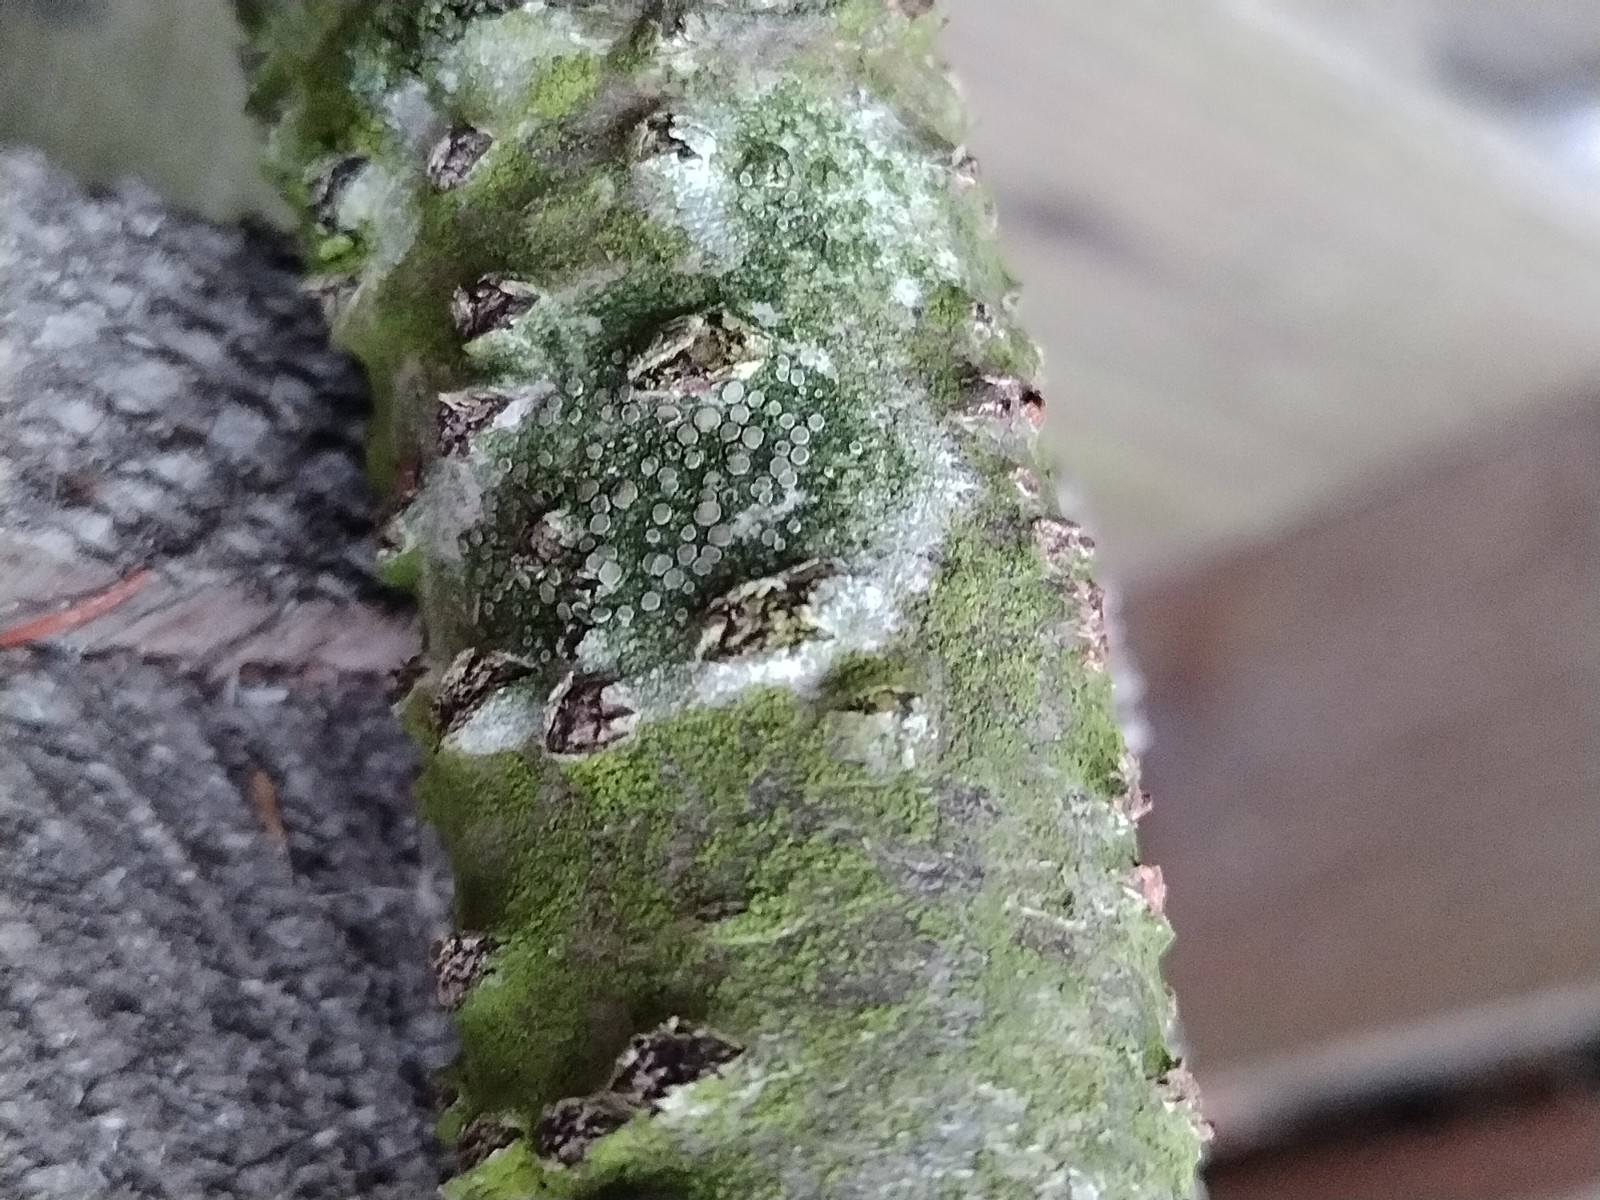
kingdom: Fungi
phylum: Ascomycota
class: Lecanoromycetes
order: Lecanorales
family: Lecanoraceae
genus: Lecanora
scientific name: Lecanora chlarotera
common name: brun kantskivelav
